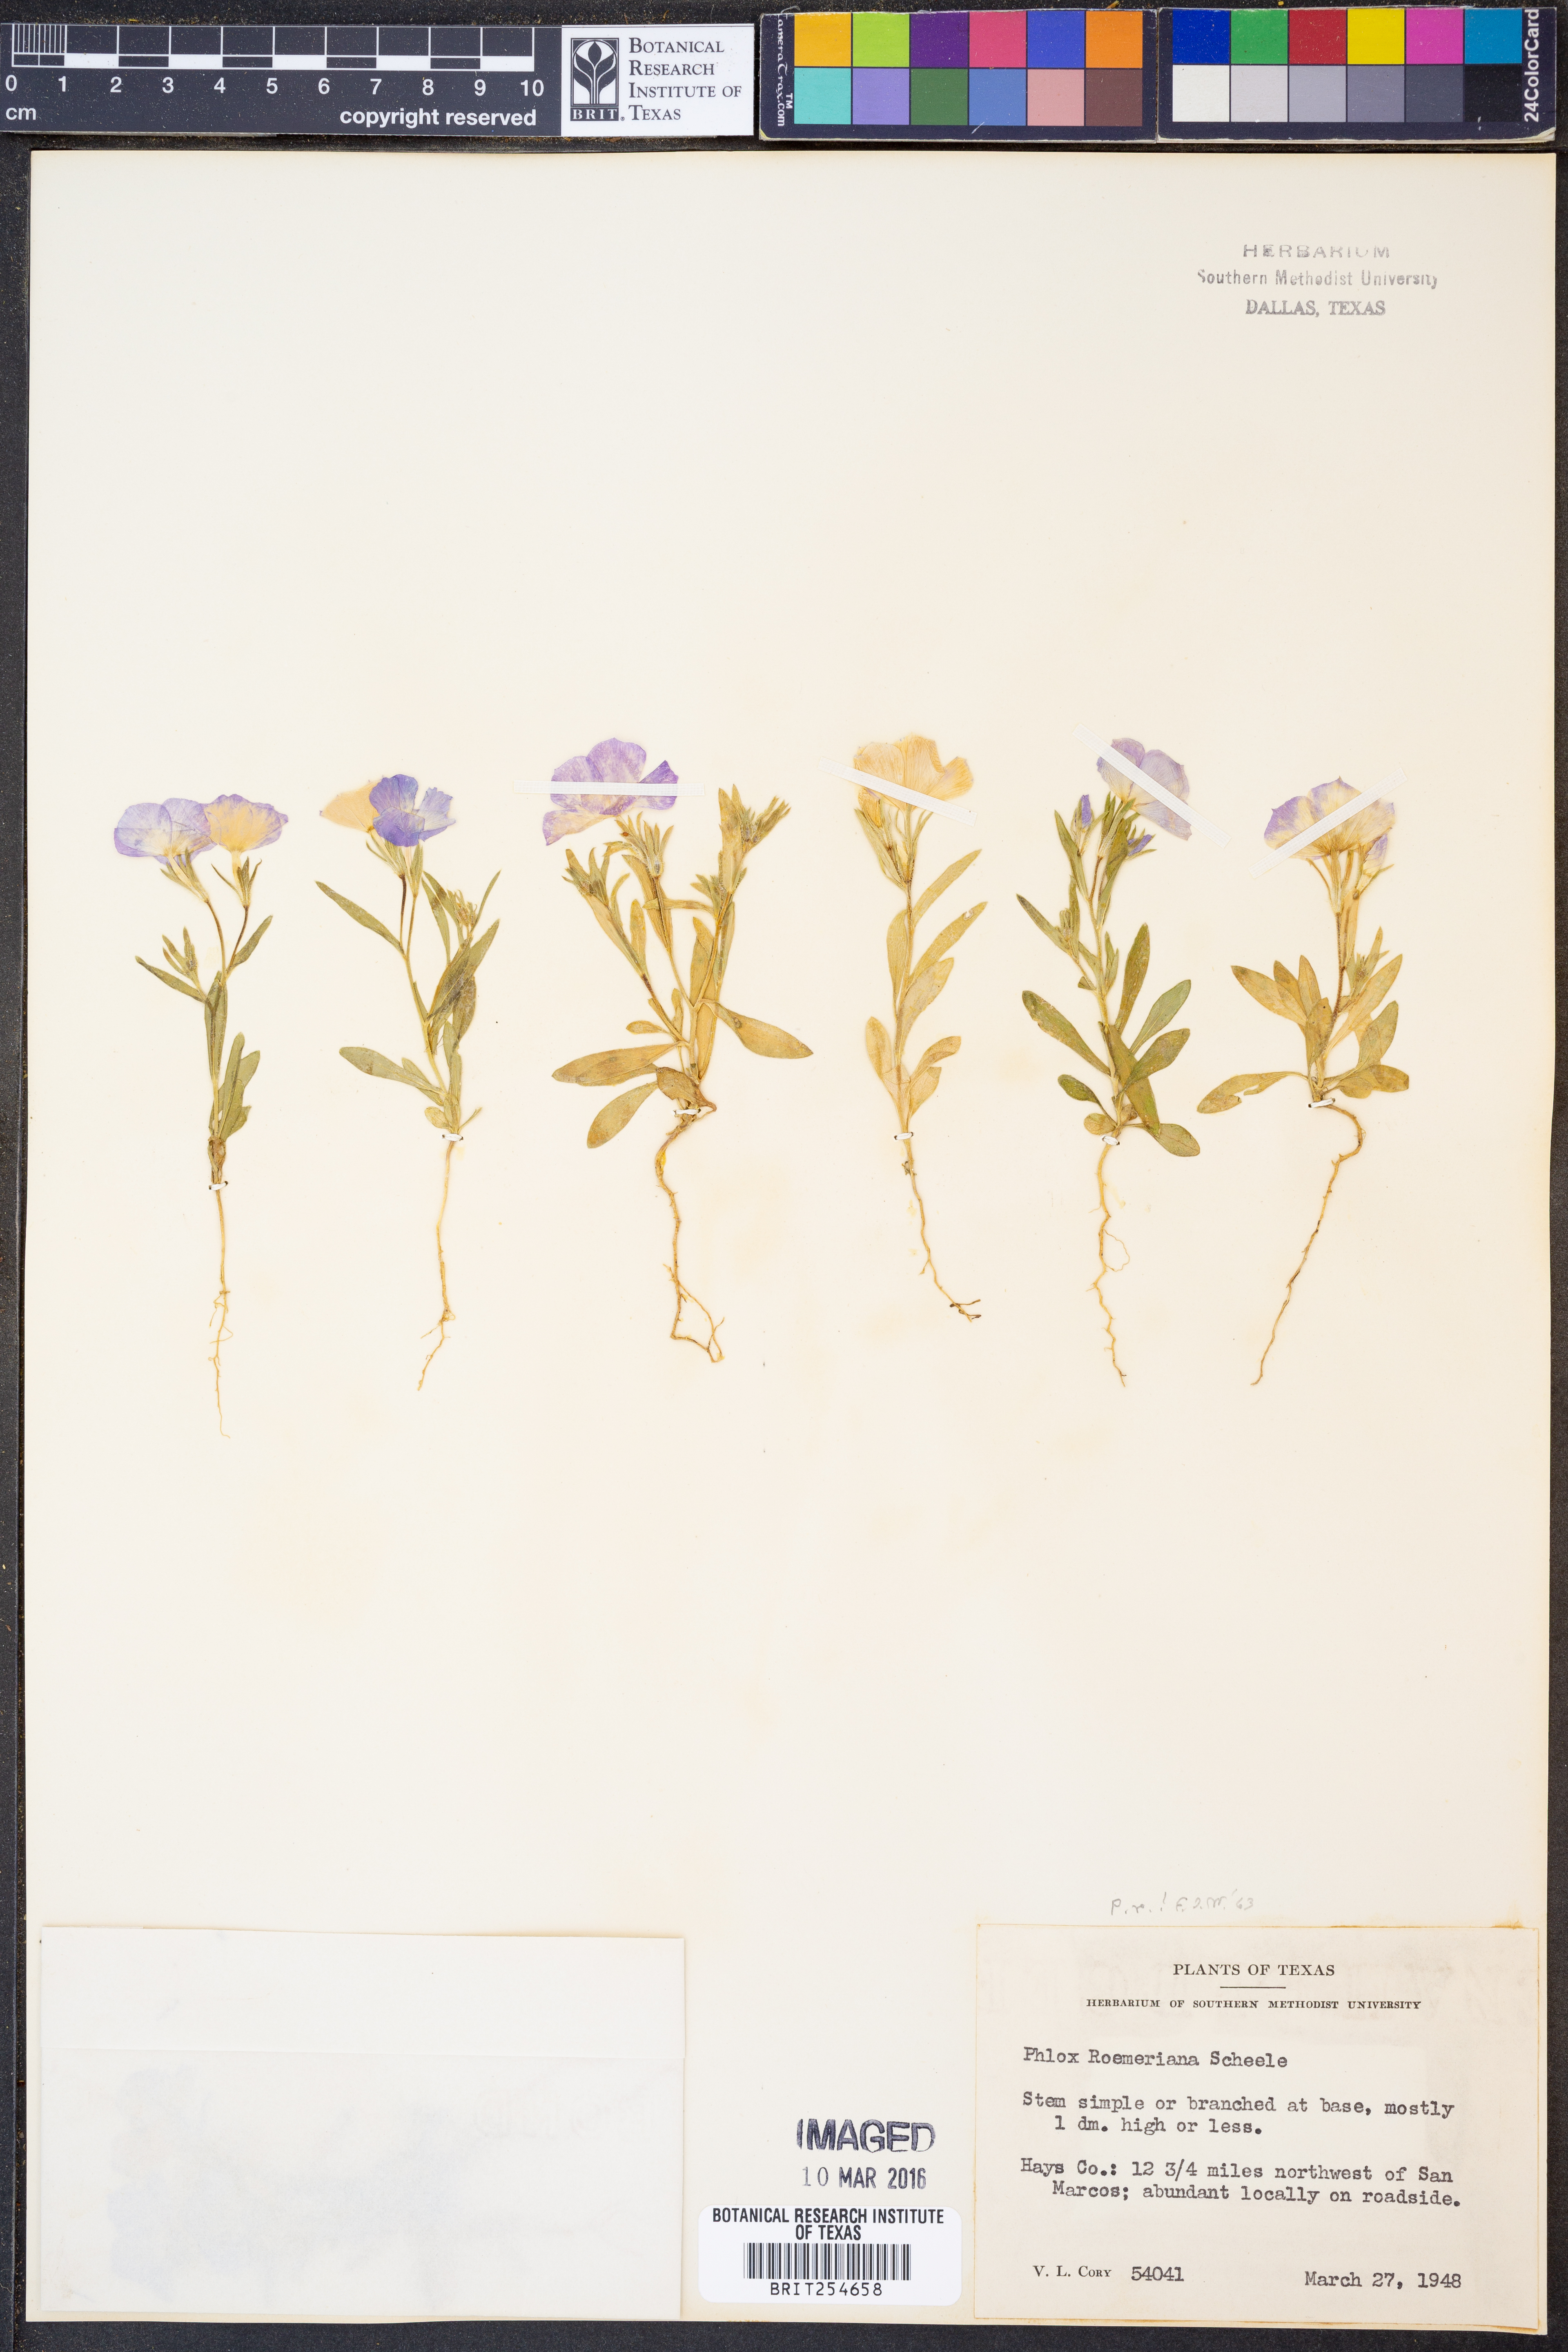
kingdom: Plantae
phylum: Tracheophyta
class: Magnoliopsida
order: Ericales
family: Polemoniaceae
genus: Phlox
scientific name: Phlox roemeriana
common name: Roemer's phlox
